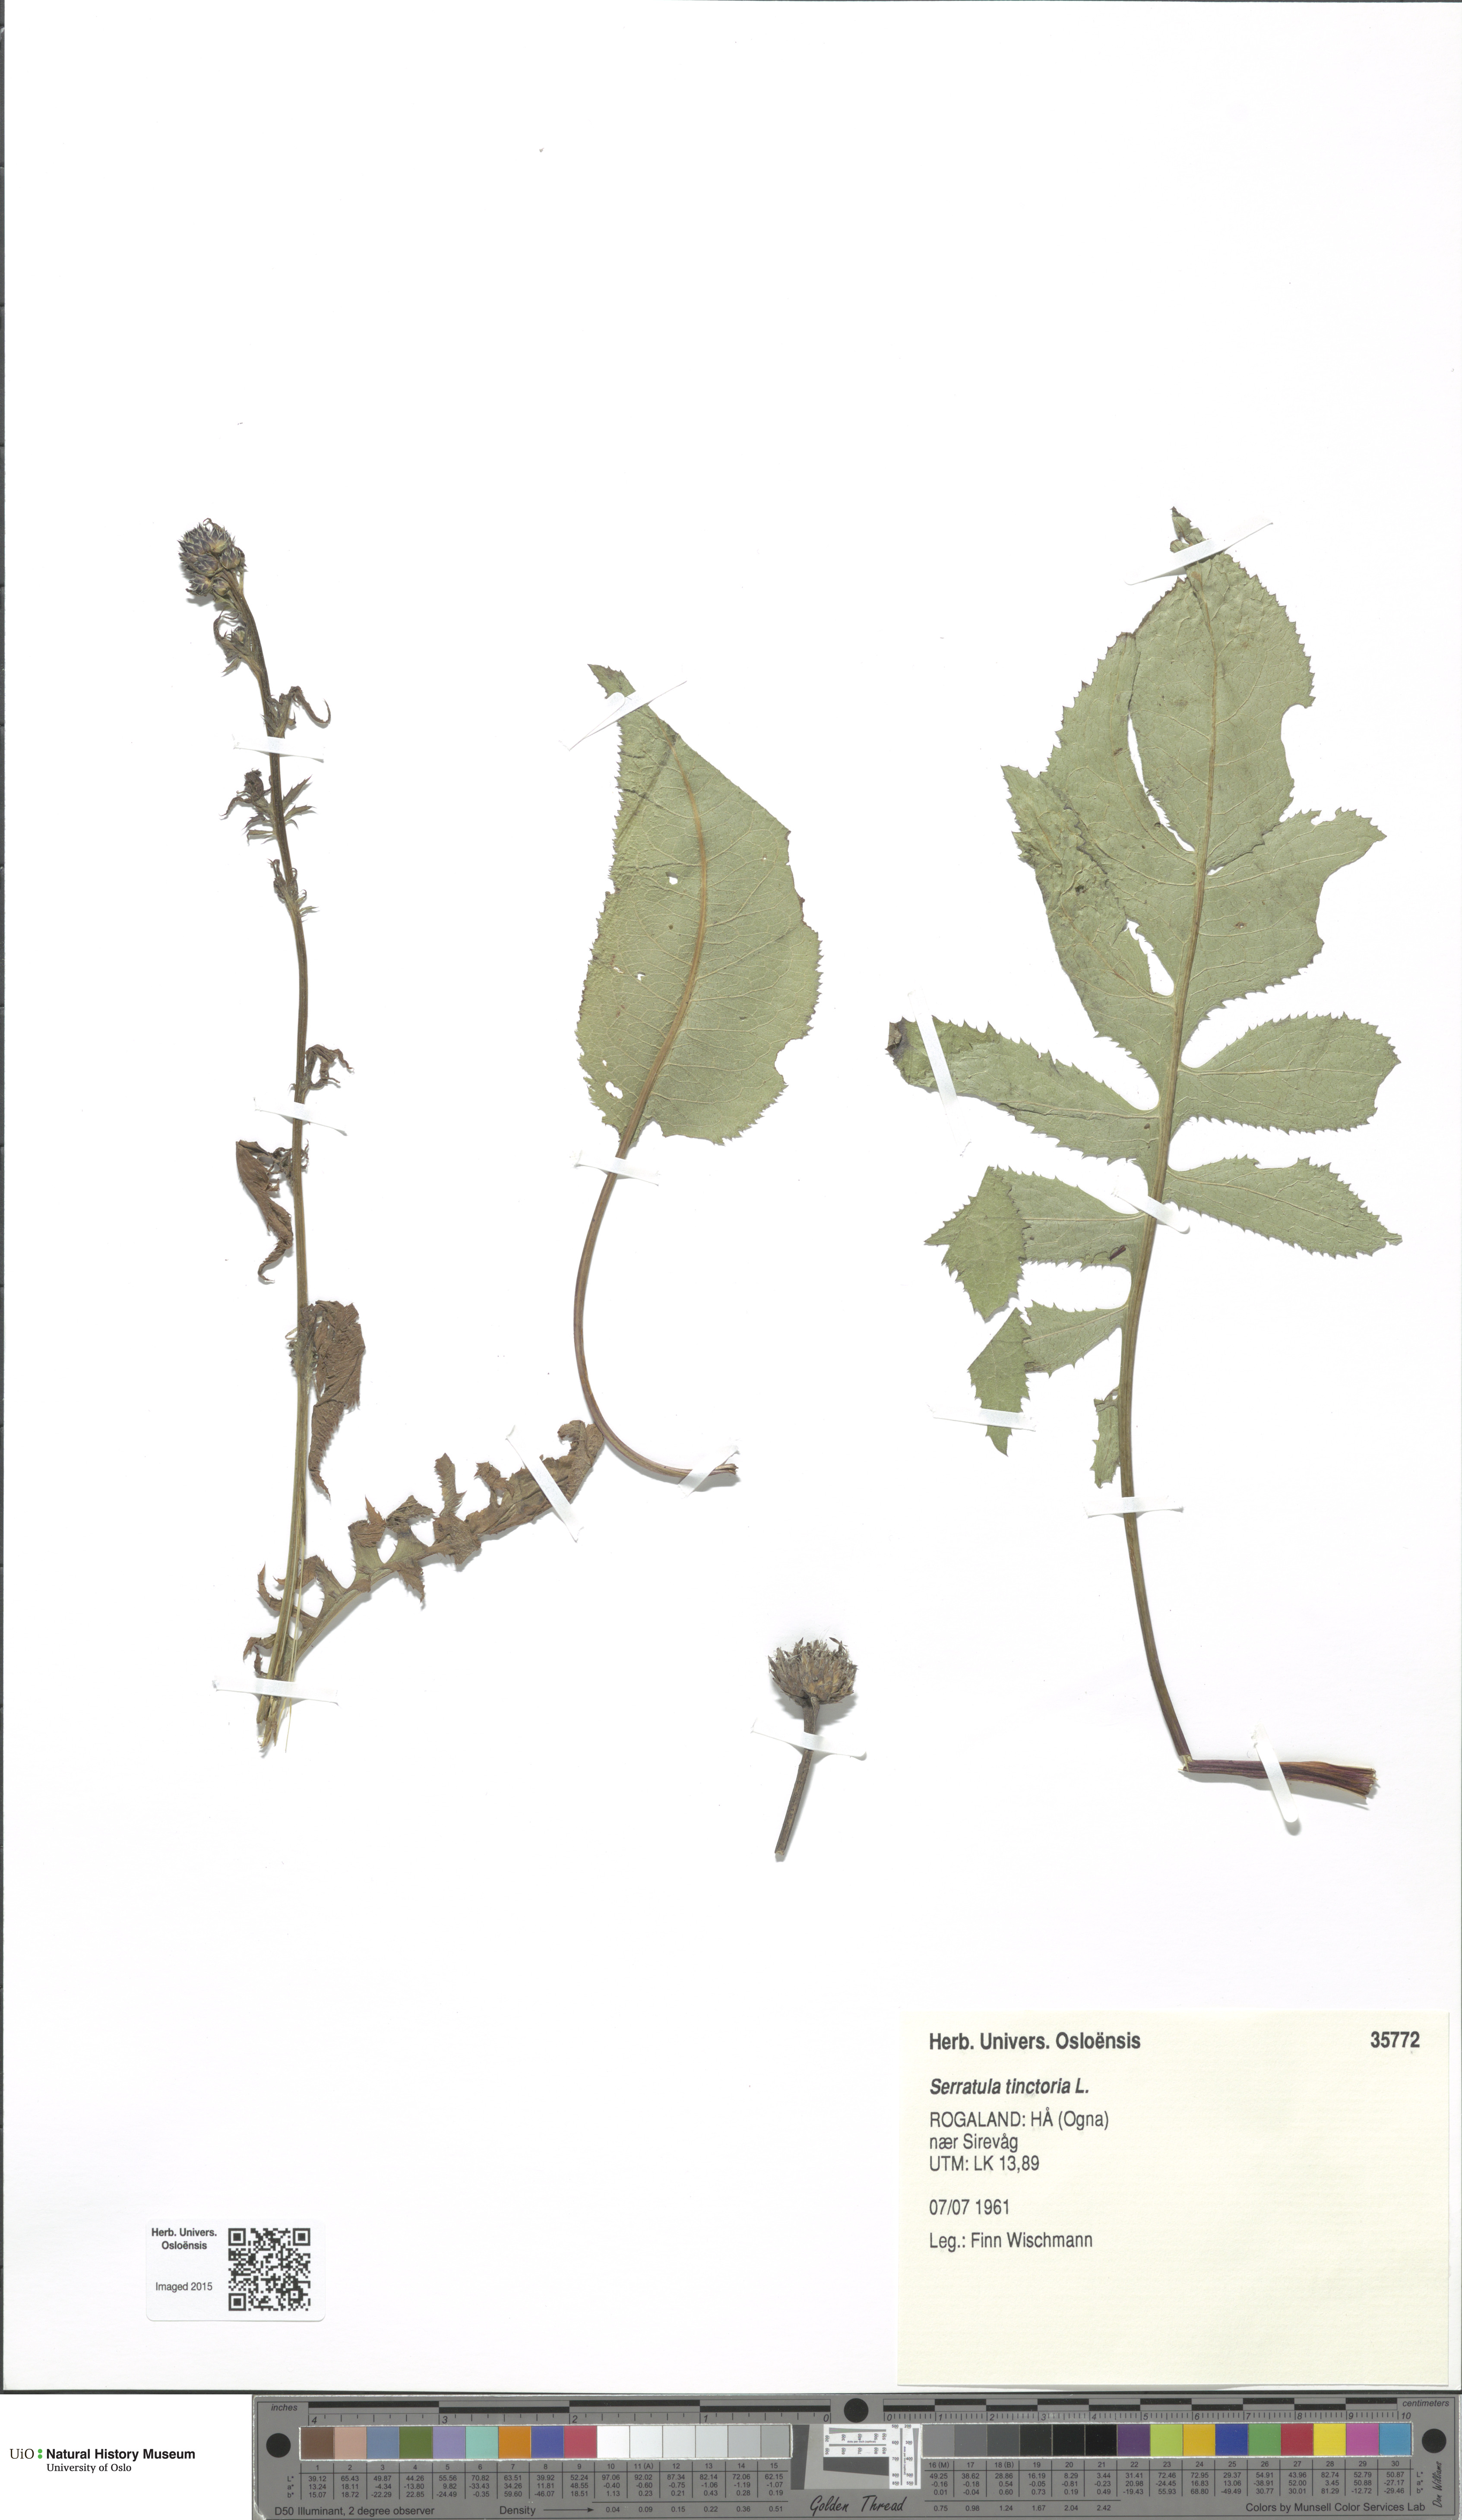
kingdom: Plantae
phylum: Tracheophyta
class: Magnoliopsida
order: Asterales
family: Asteraceae
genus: Serratula
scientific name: Serratula tinctoria
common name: Saw-wort
